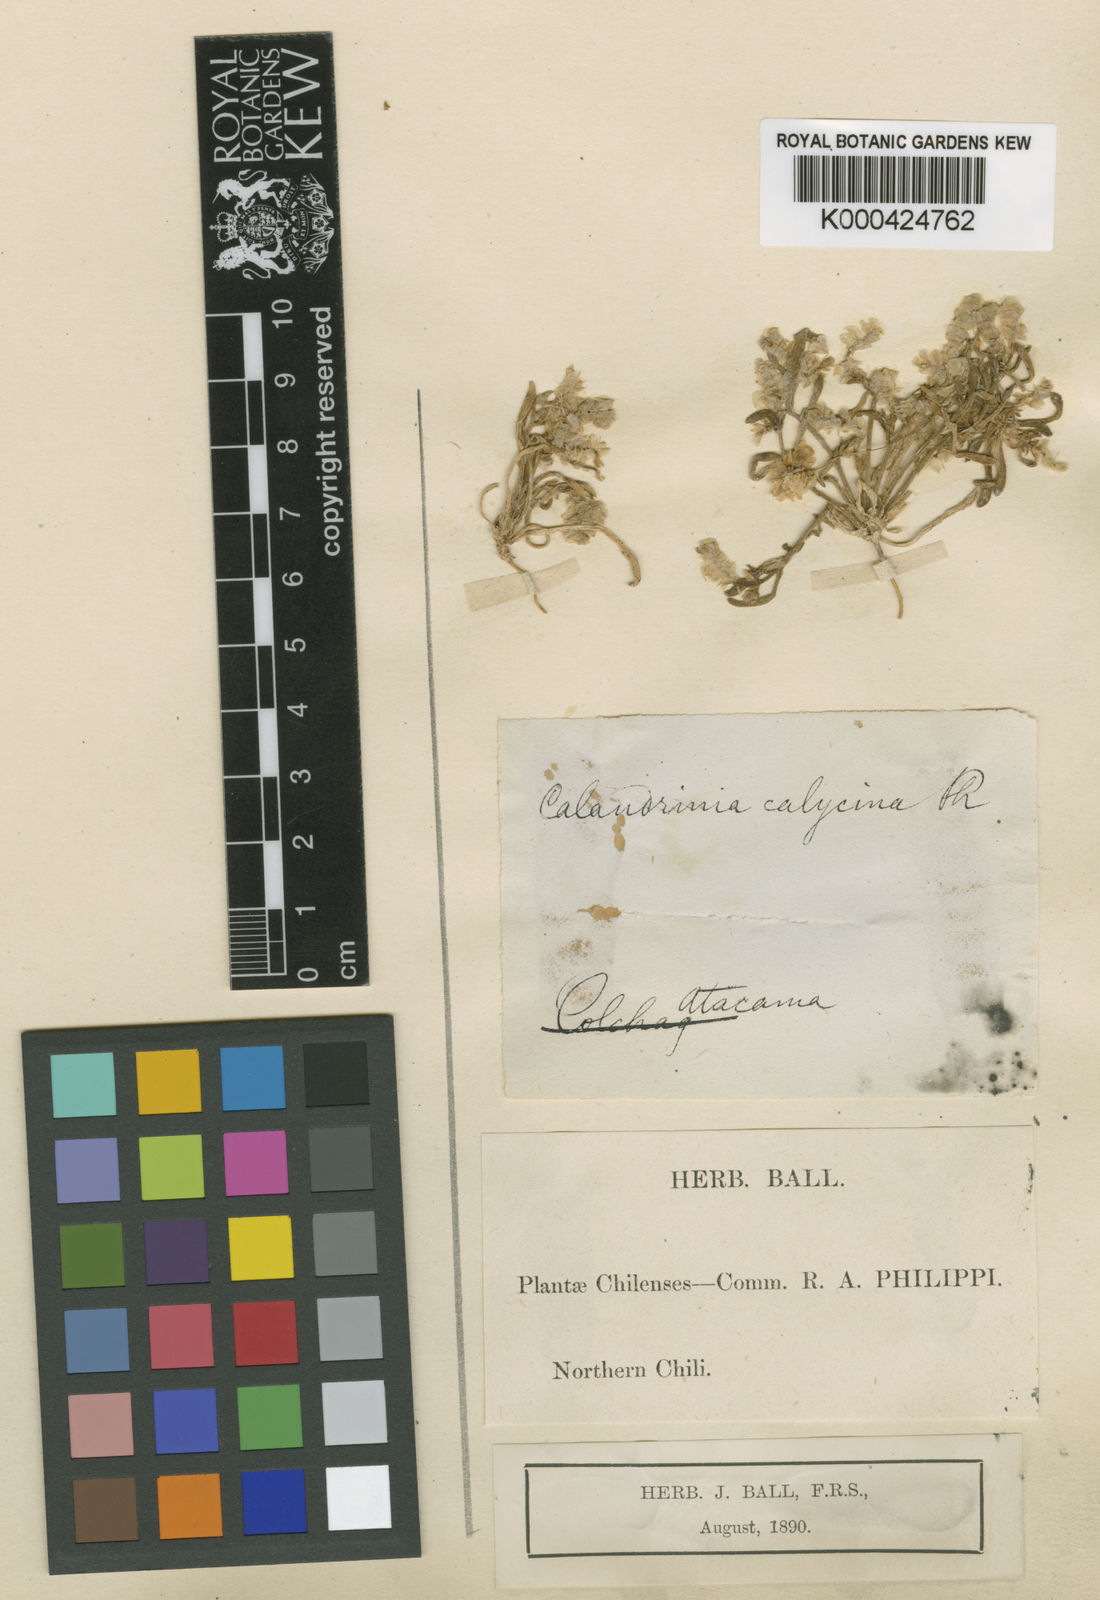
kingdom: Plantae
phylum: Tracheophyta
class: Magnoliopsida
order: Caryophyllales
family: Montiaceae
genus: Philippiamra
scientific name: Philippiamra calycina
